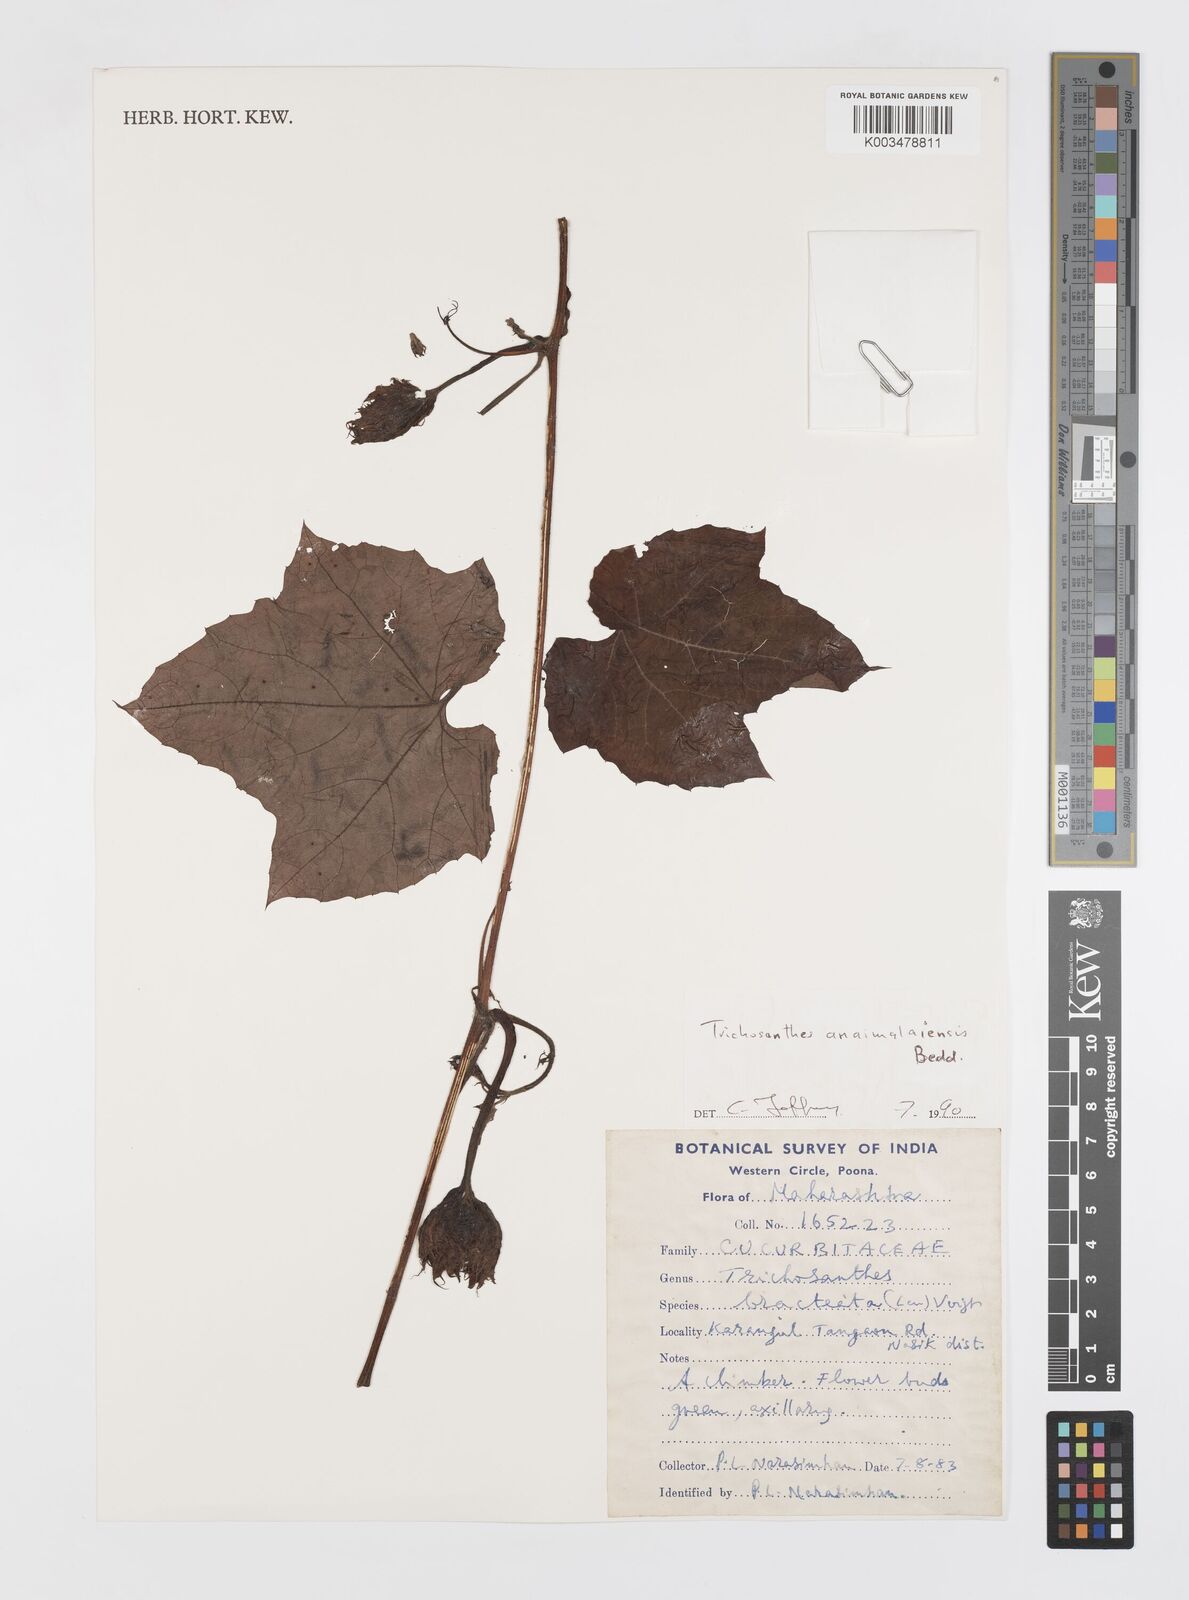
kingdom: Plantae
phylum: Tracheophyta
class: Magnoliopsida
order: Cucurbitales
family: Cucurbitaceae
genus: Trichosanthes
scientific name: Trichosanthes anaimalaiensis
